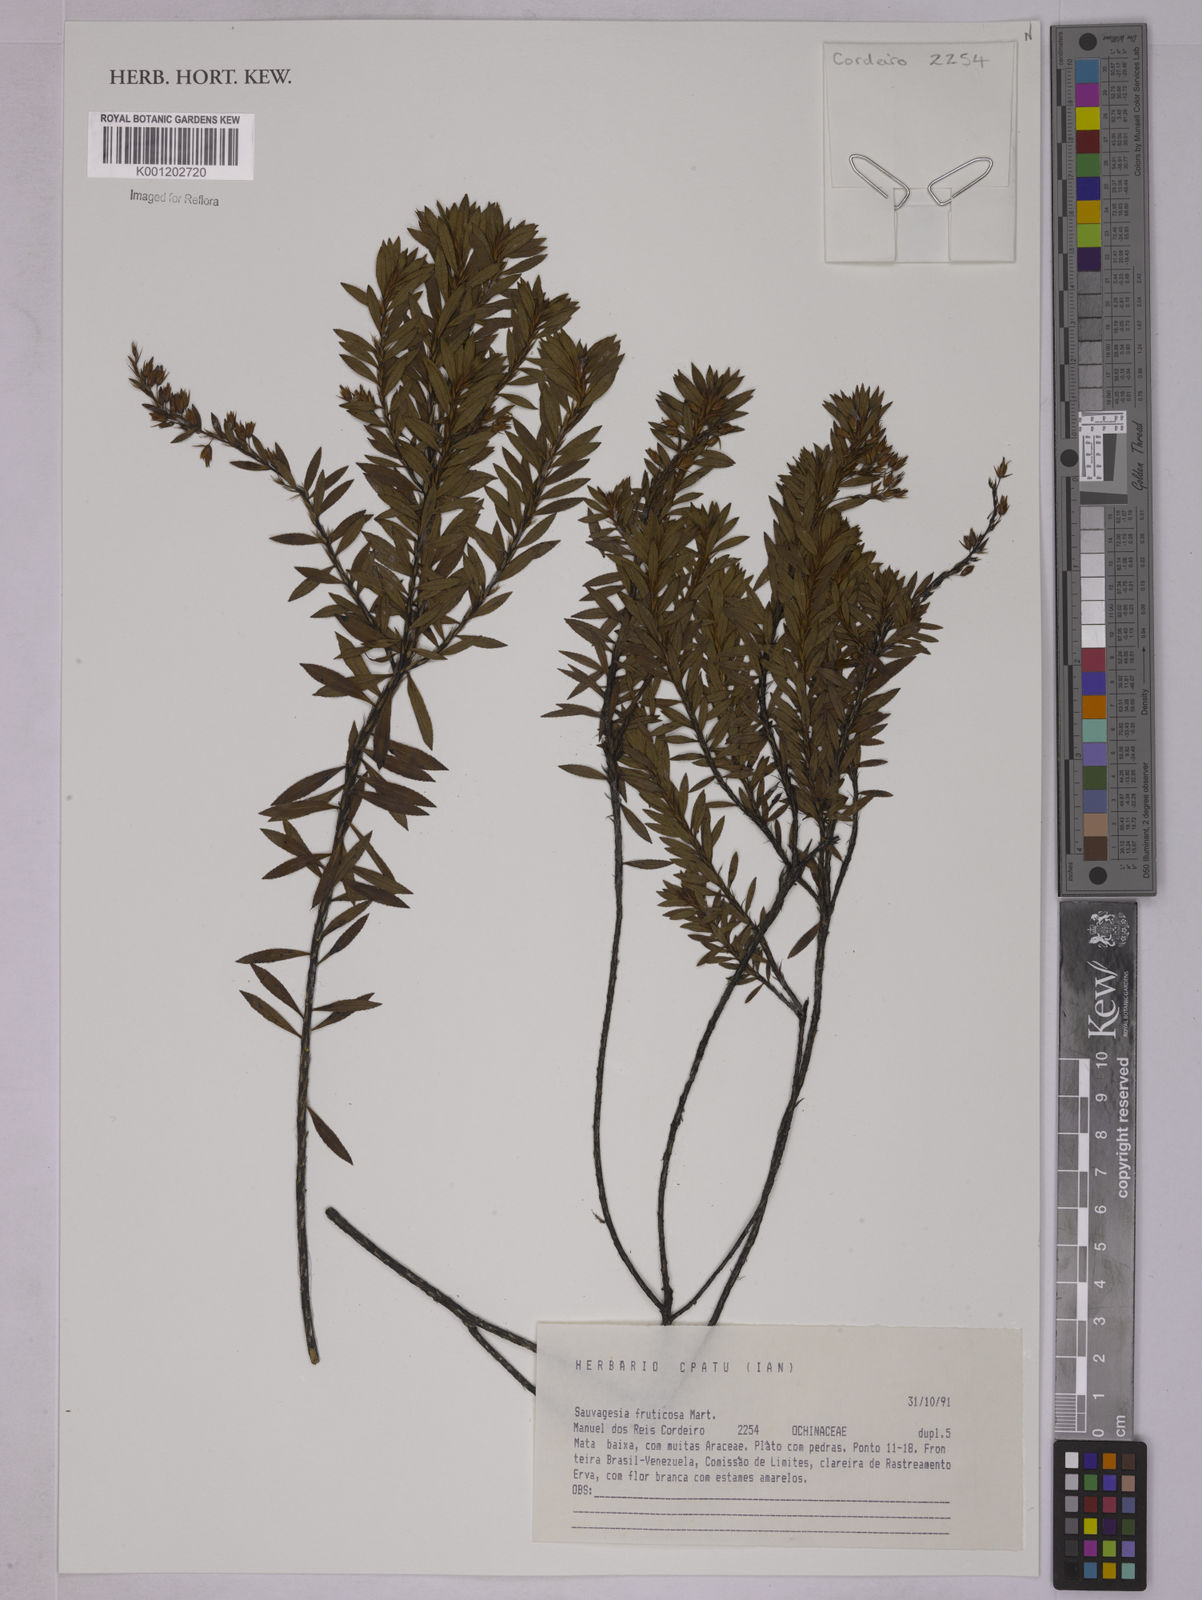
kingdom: Plantae
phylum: Tracheophyta
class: Magnoliopsida
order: Malpighiales
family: Ochnaceae
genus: Sauvagesia
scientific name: Sauvagesia fruticosa
